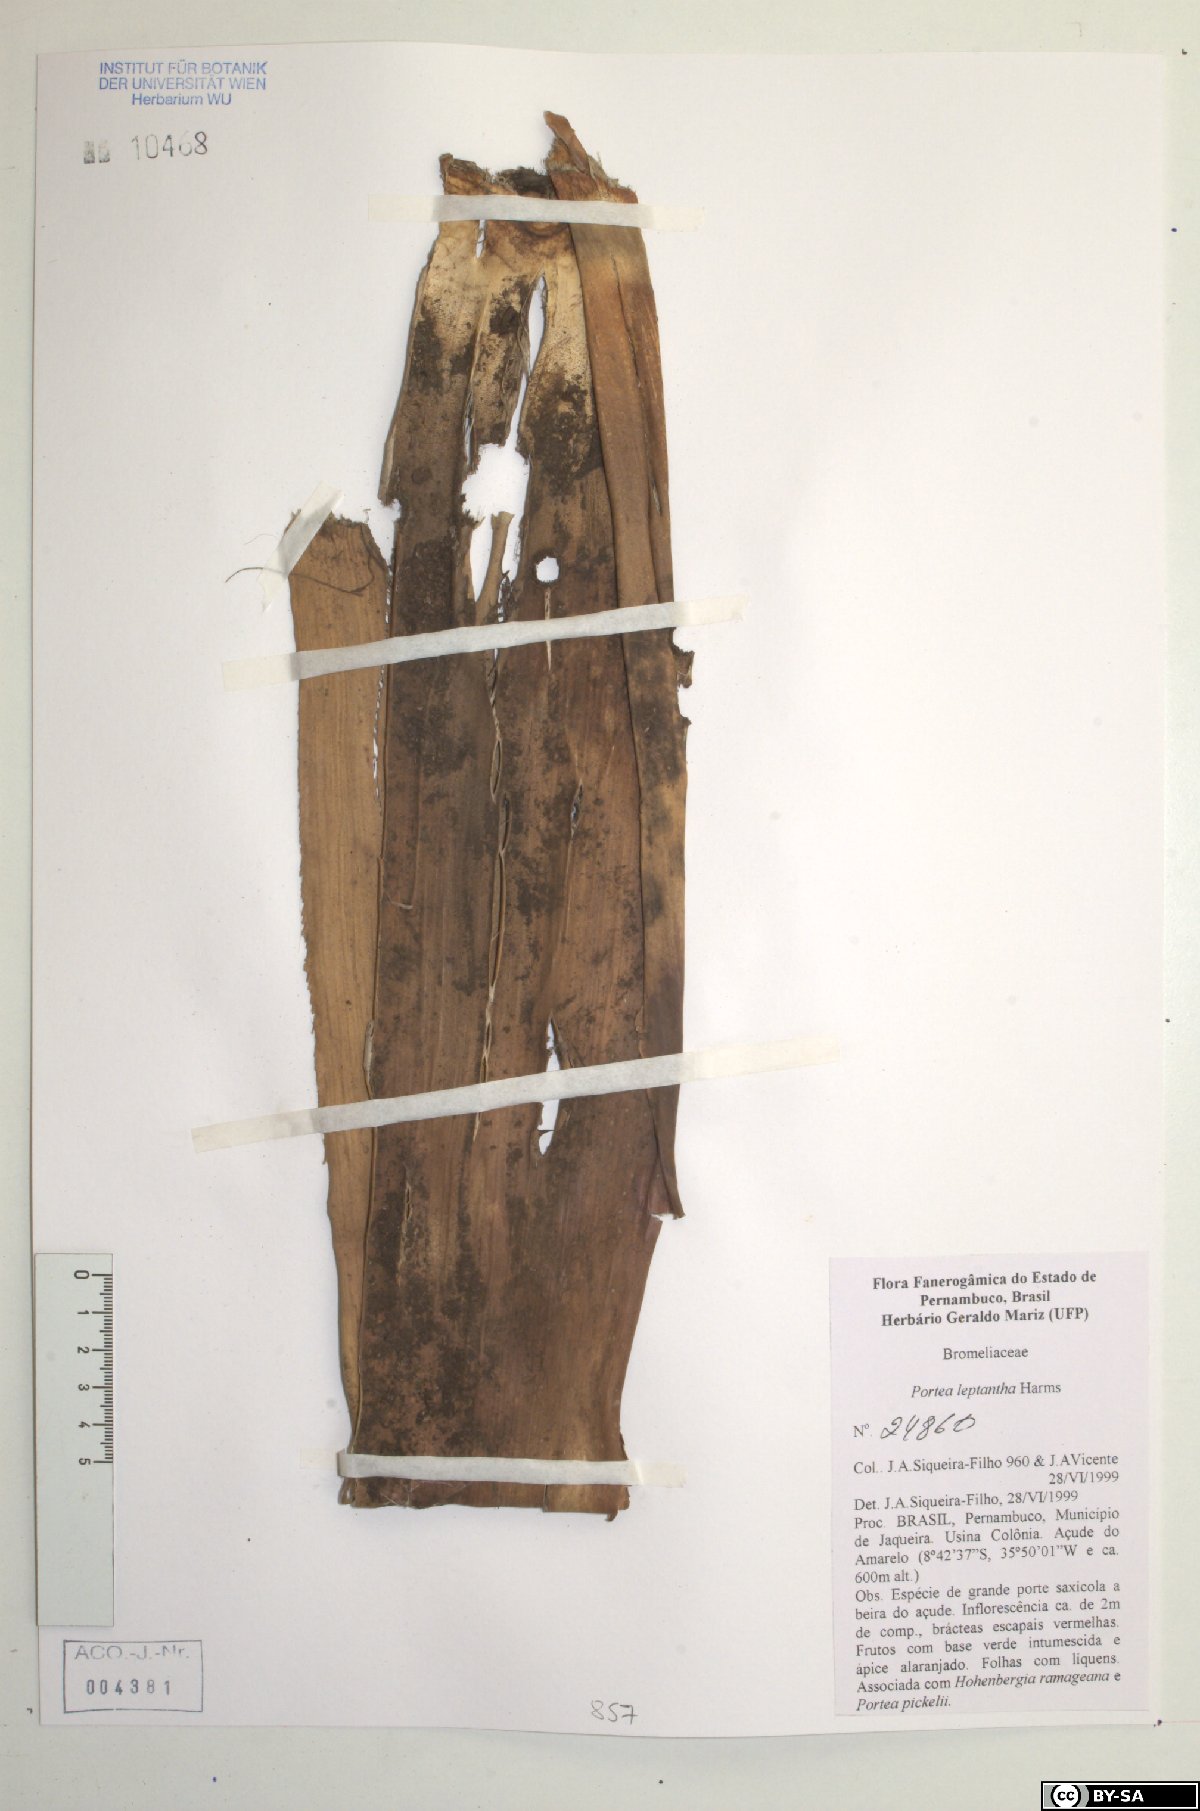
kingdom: Plantae
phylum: Tracheophyta
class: Liliopsida
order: Poales
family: Bromeliaceae
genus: Aechmea
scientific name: Aechmea leptantha
